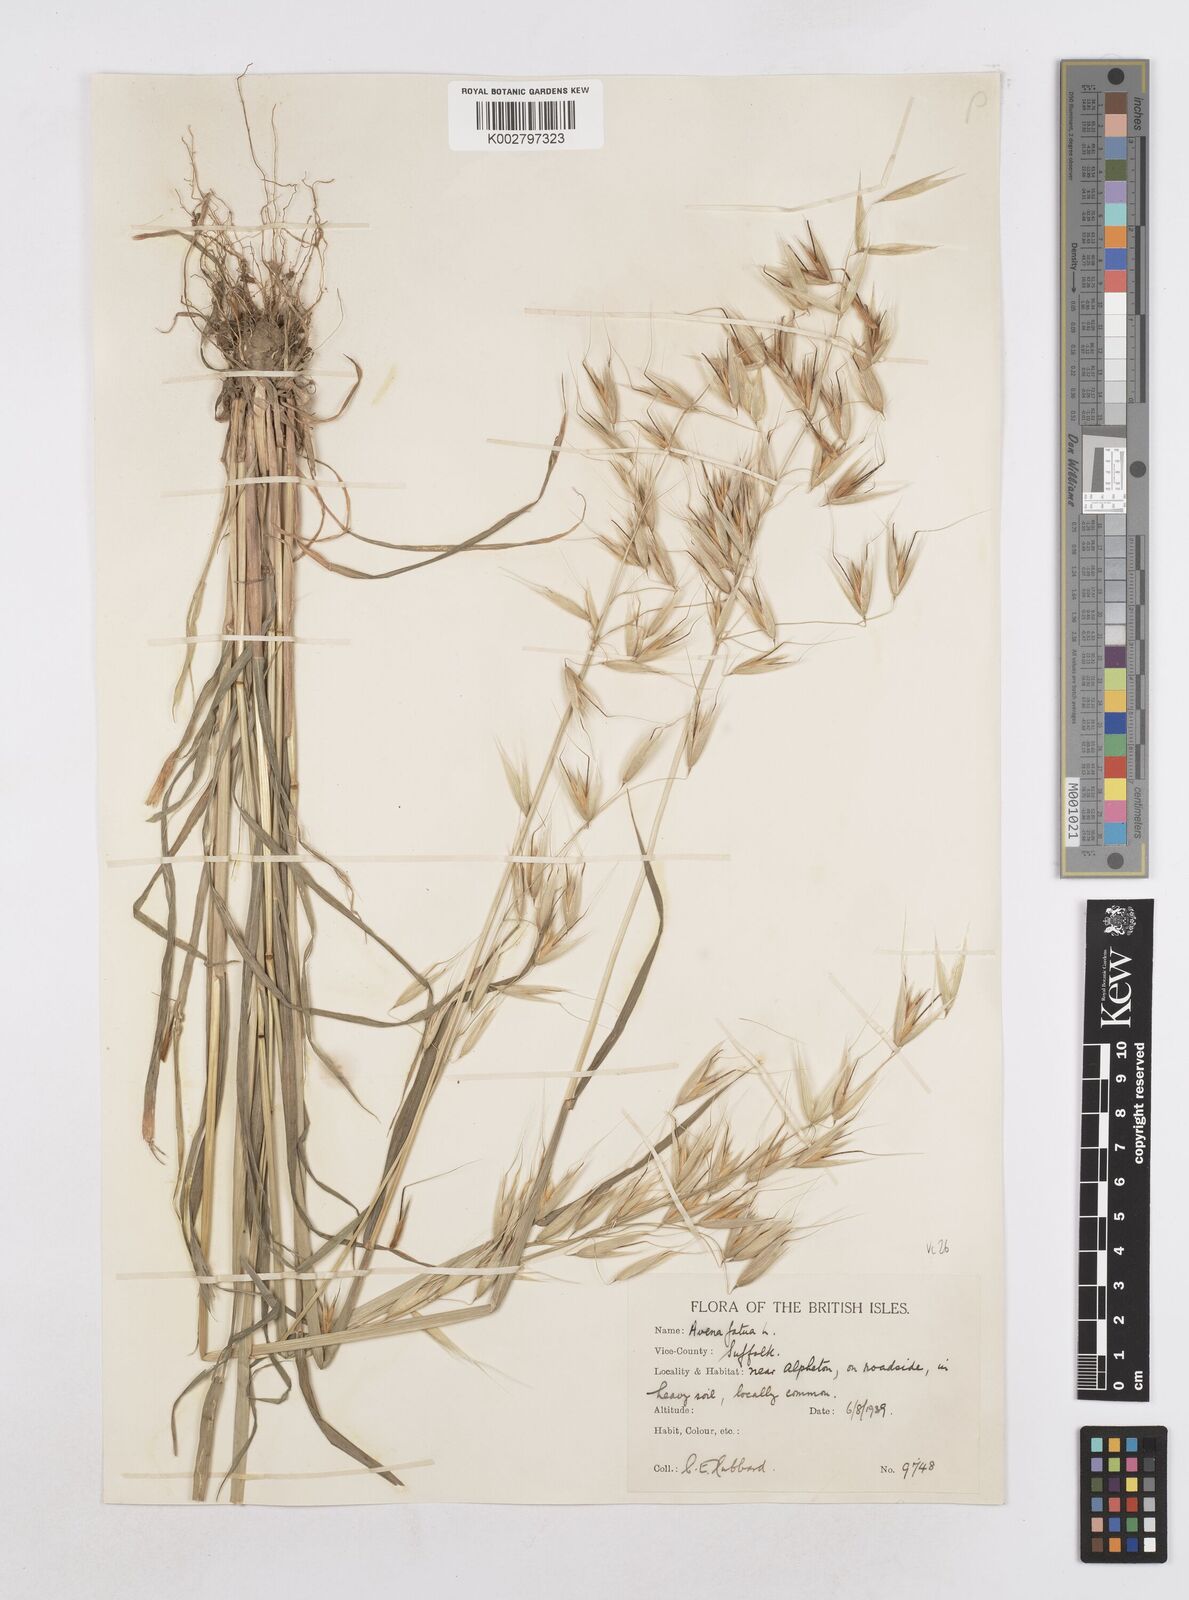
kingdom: Plantae
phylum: Tracheophyta
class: Liliopsida
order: Poales
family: Poaceae
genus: Avena
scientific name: Avena fatua
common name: Wild oat
